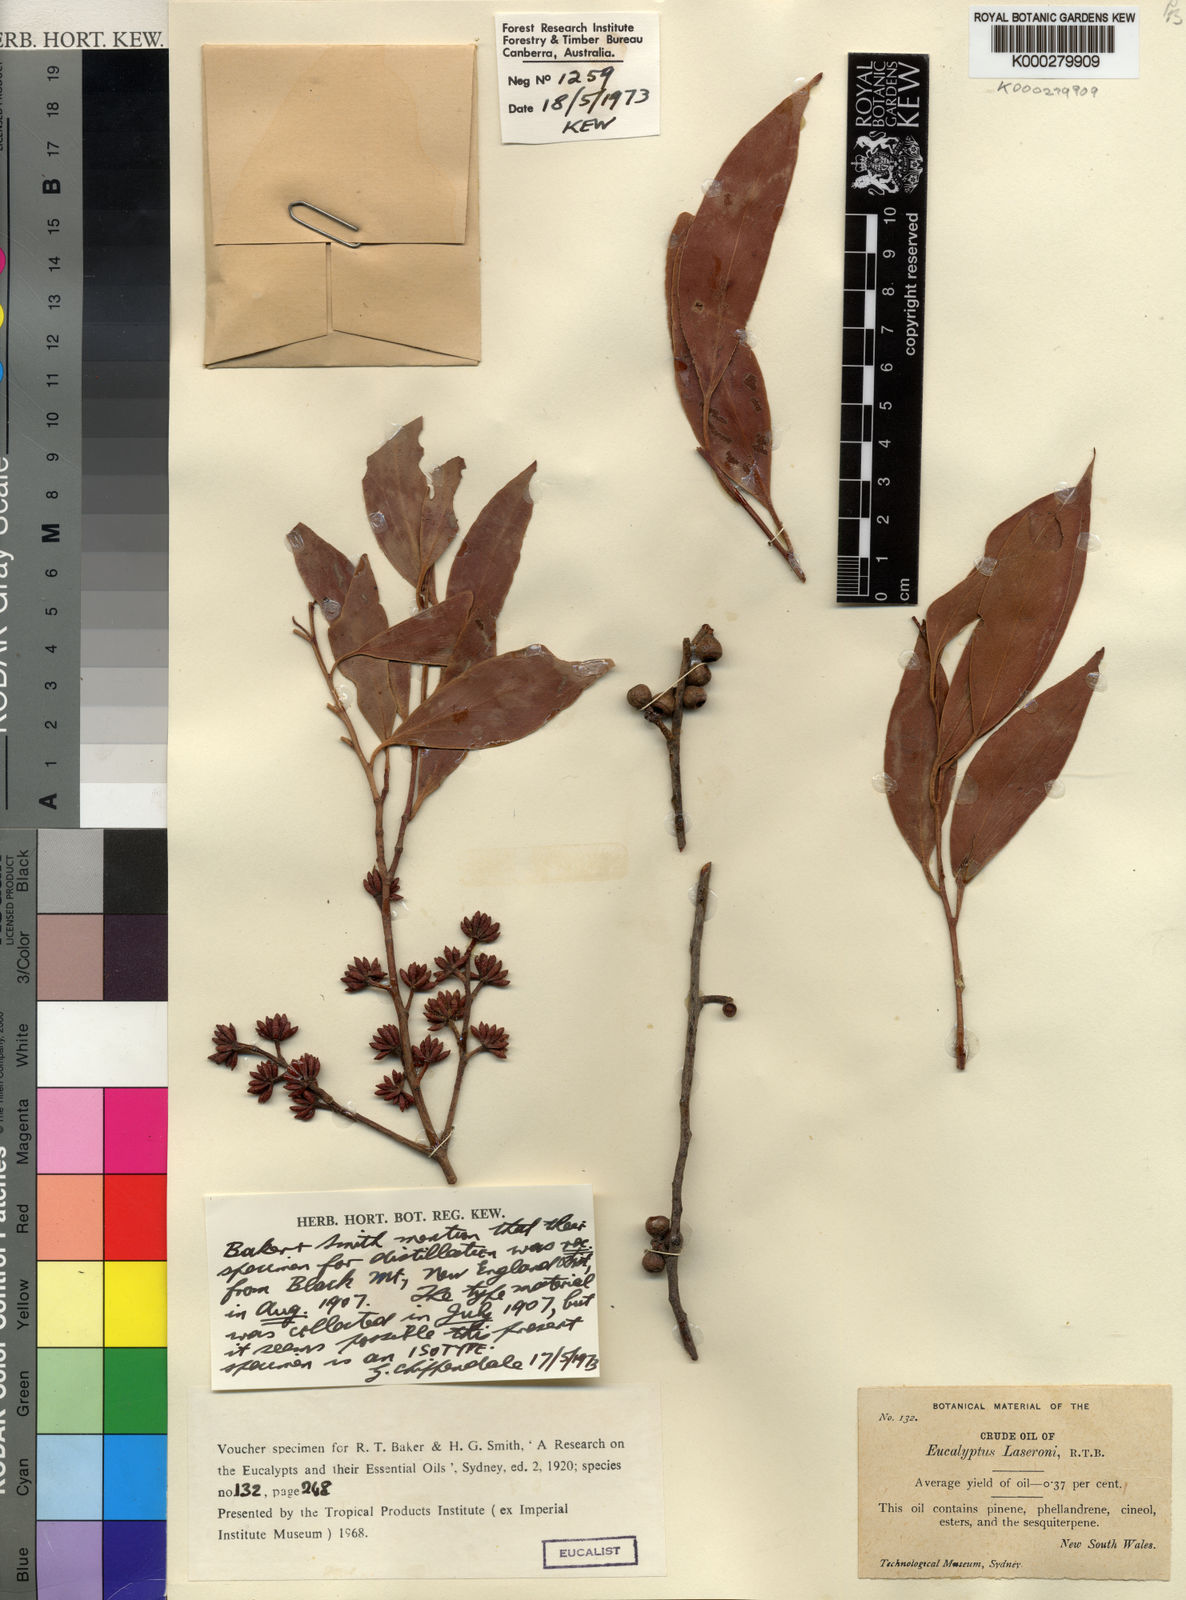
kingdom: Plantae
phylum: Tracheophyta
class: Magnoliopsida
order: Myrtales
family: Myrtaceae
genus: Eucalyptus
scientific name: Eucalyptus laseronii
